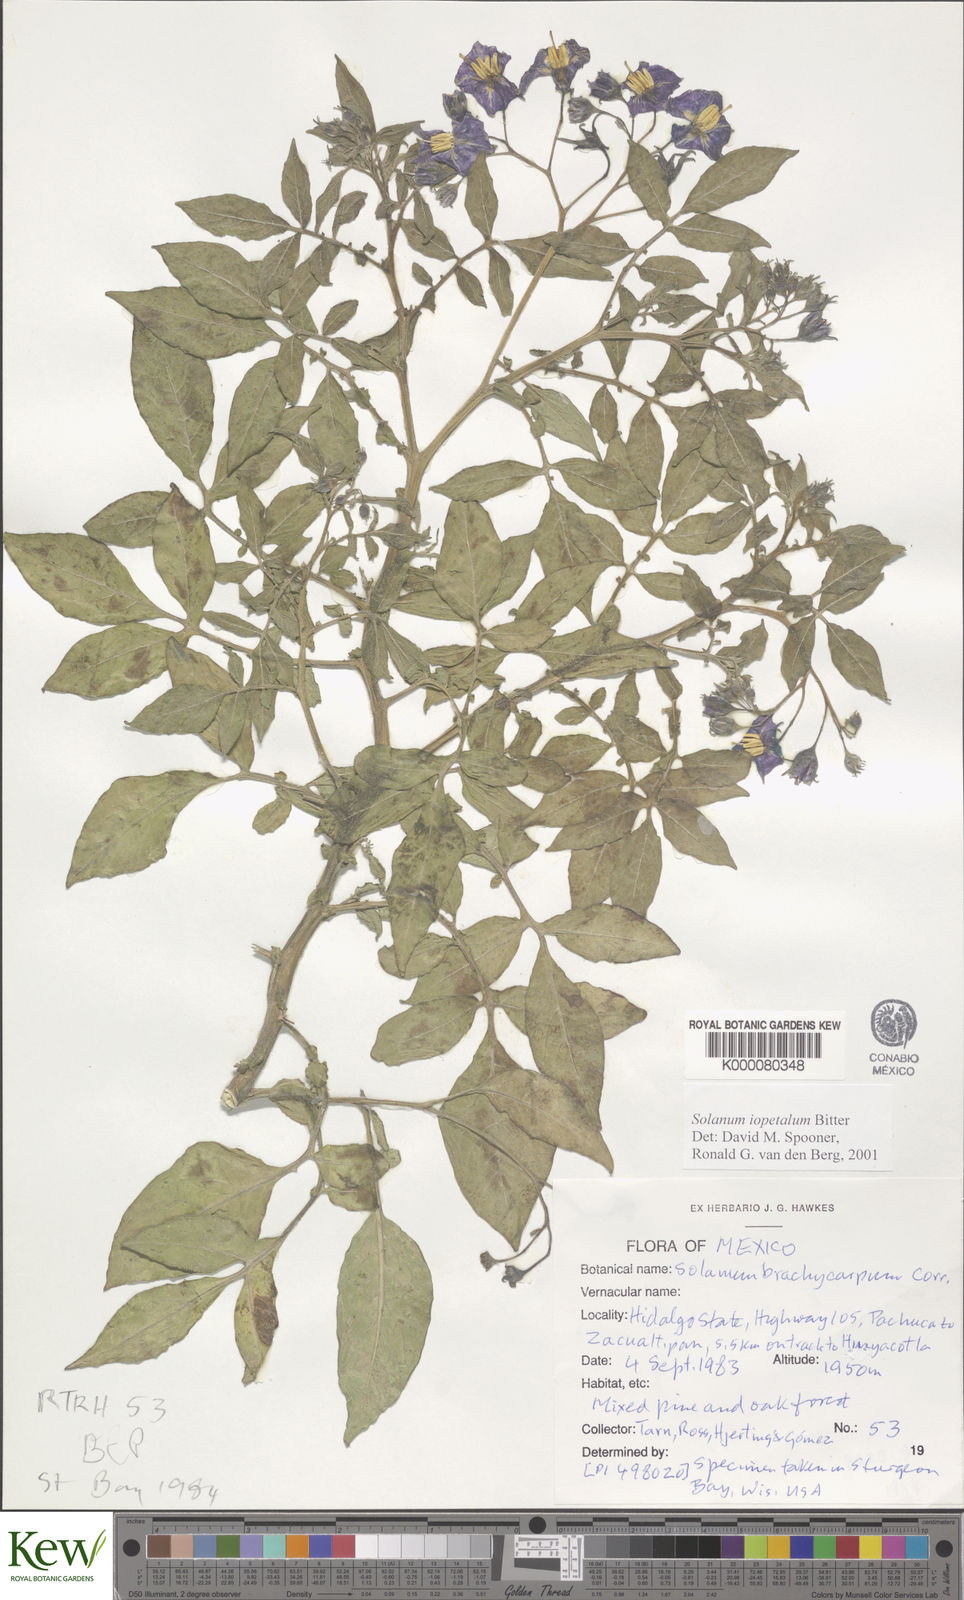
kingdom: Plantae
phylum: Tracheophyta
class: Magnoliopsida
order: Solanales
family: Solanaceae
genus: Solanum
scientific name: Solanum iopetalum
